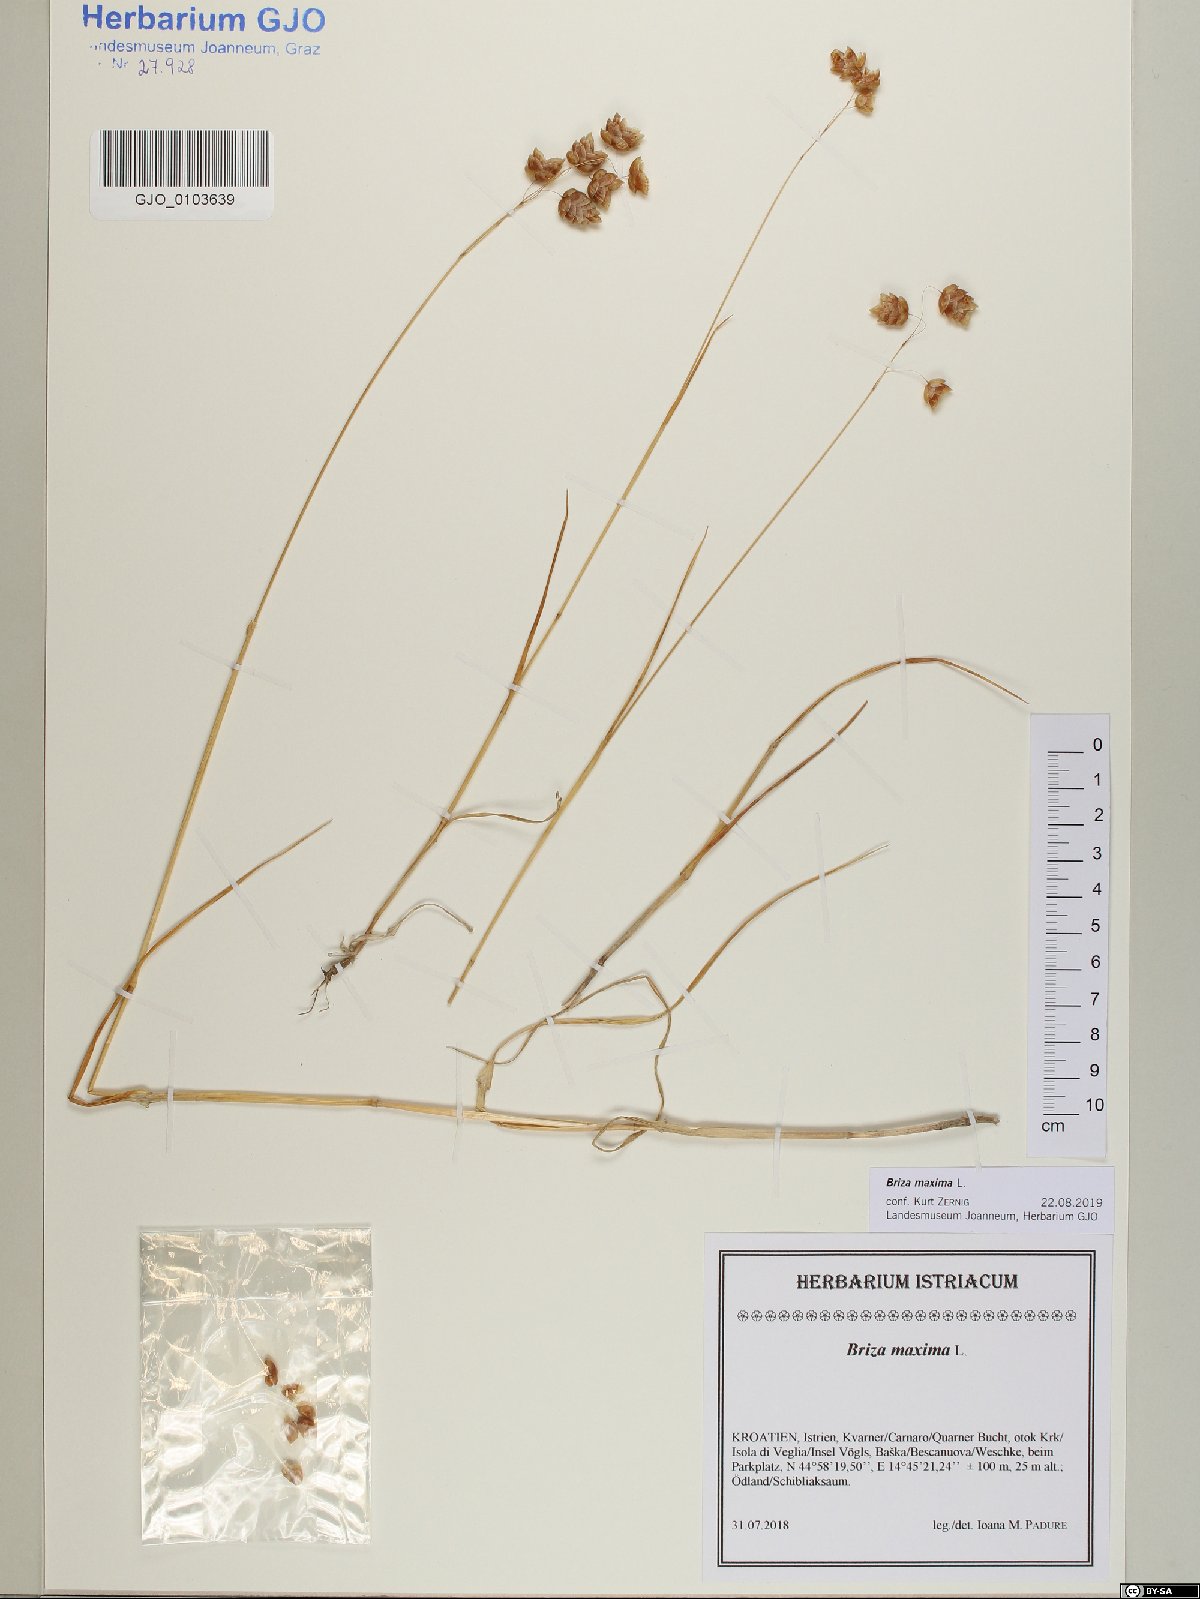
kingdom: Plantae
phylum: Tracheophyta
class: Liliopsida
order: Poales
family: Poaceae
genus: Briza
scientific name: Briza maxima
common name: Big quakinggrass
